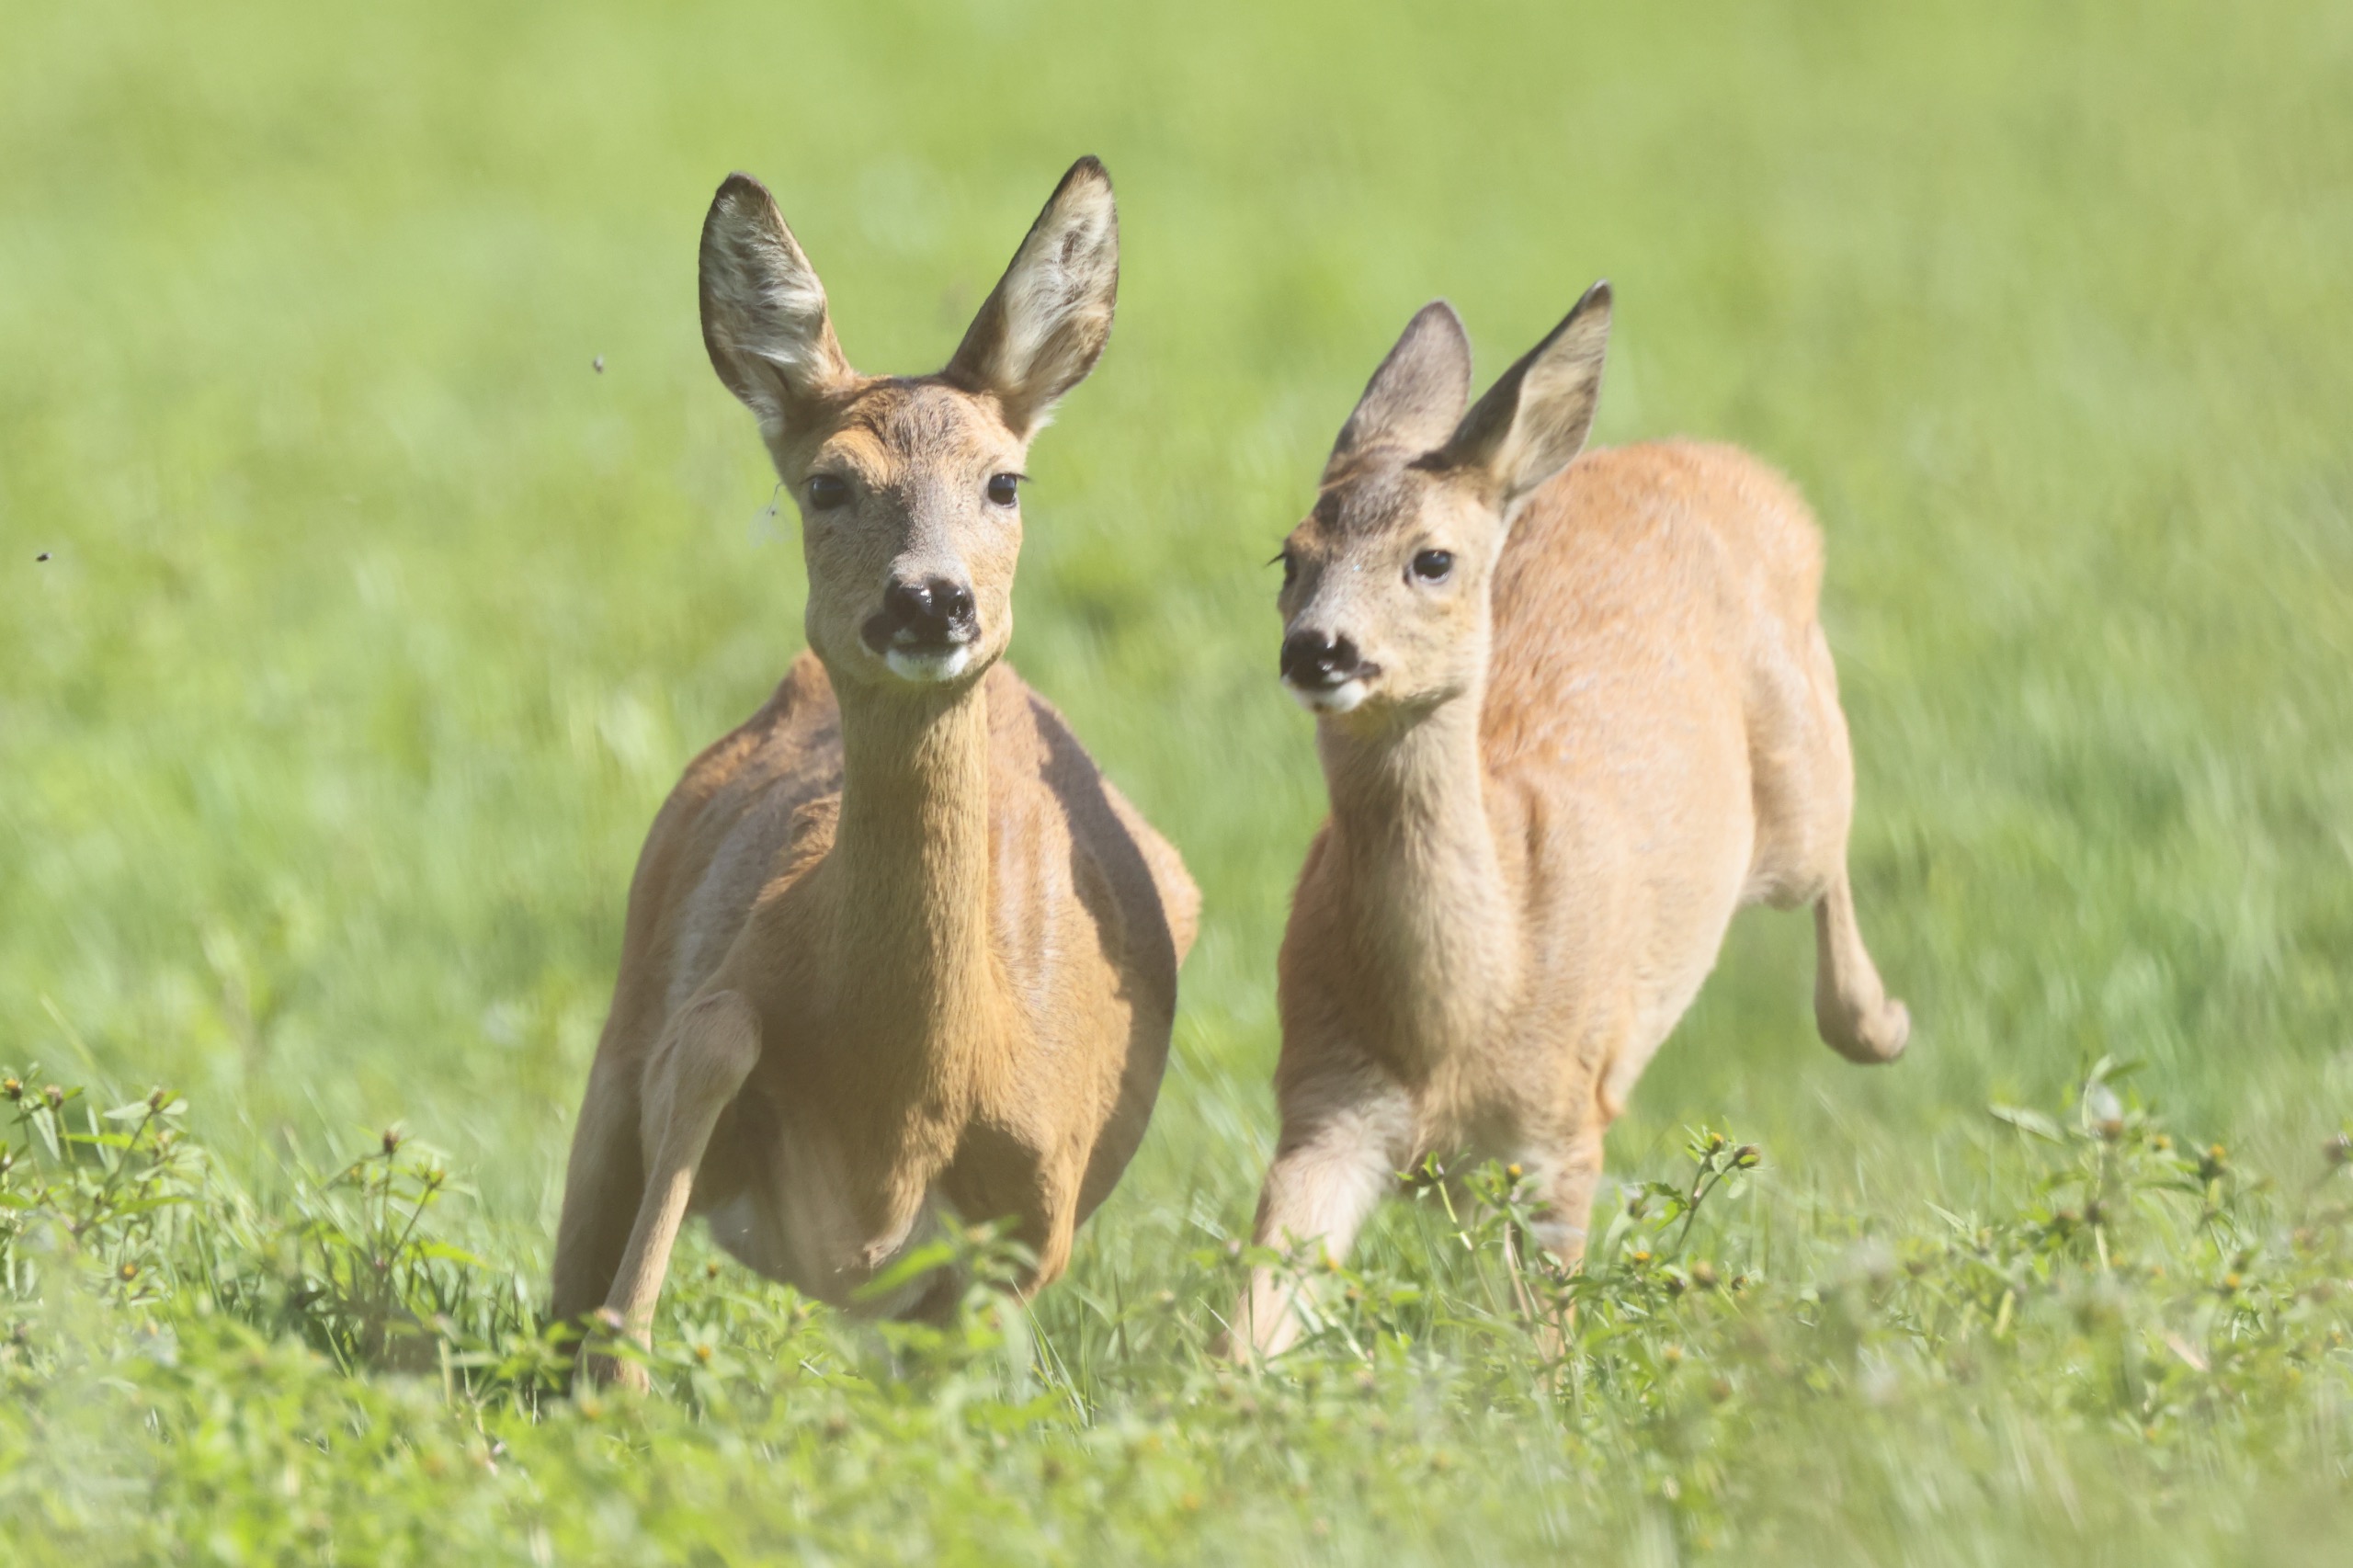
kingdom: Animalia
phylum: Chordata
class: Mammalia
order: Artiodactyla
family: Cervidae
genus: Capreolus
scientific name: Capreolus capreolus
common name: Rådyr
